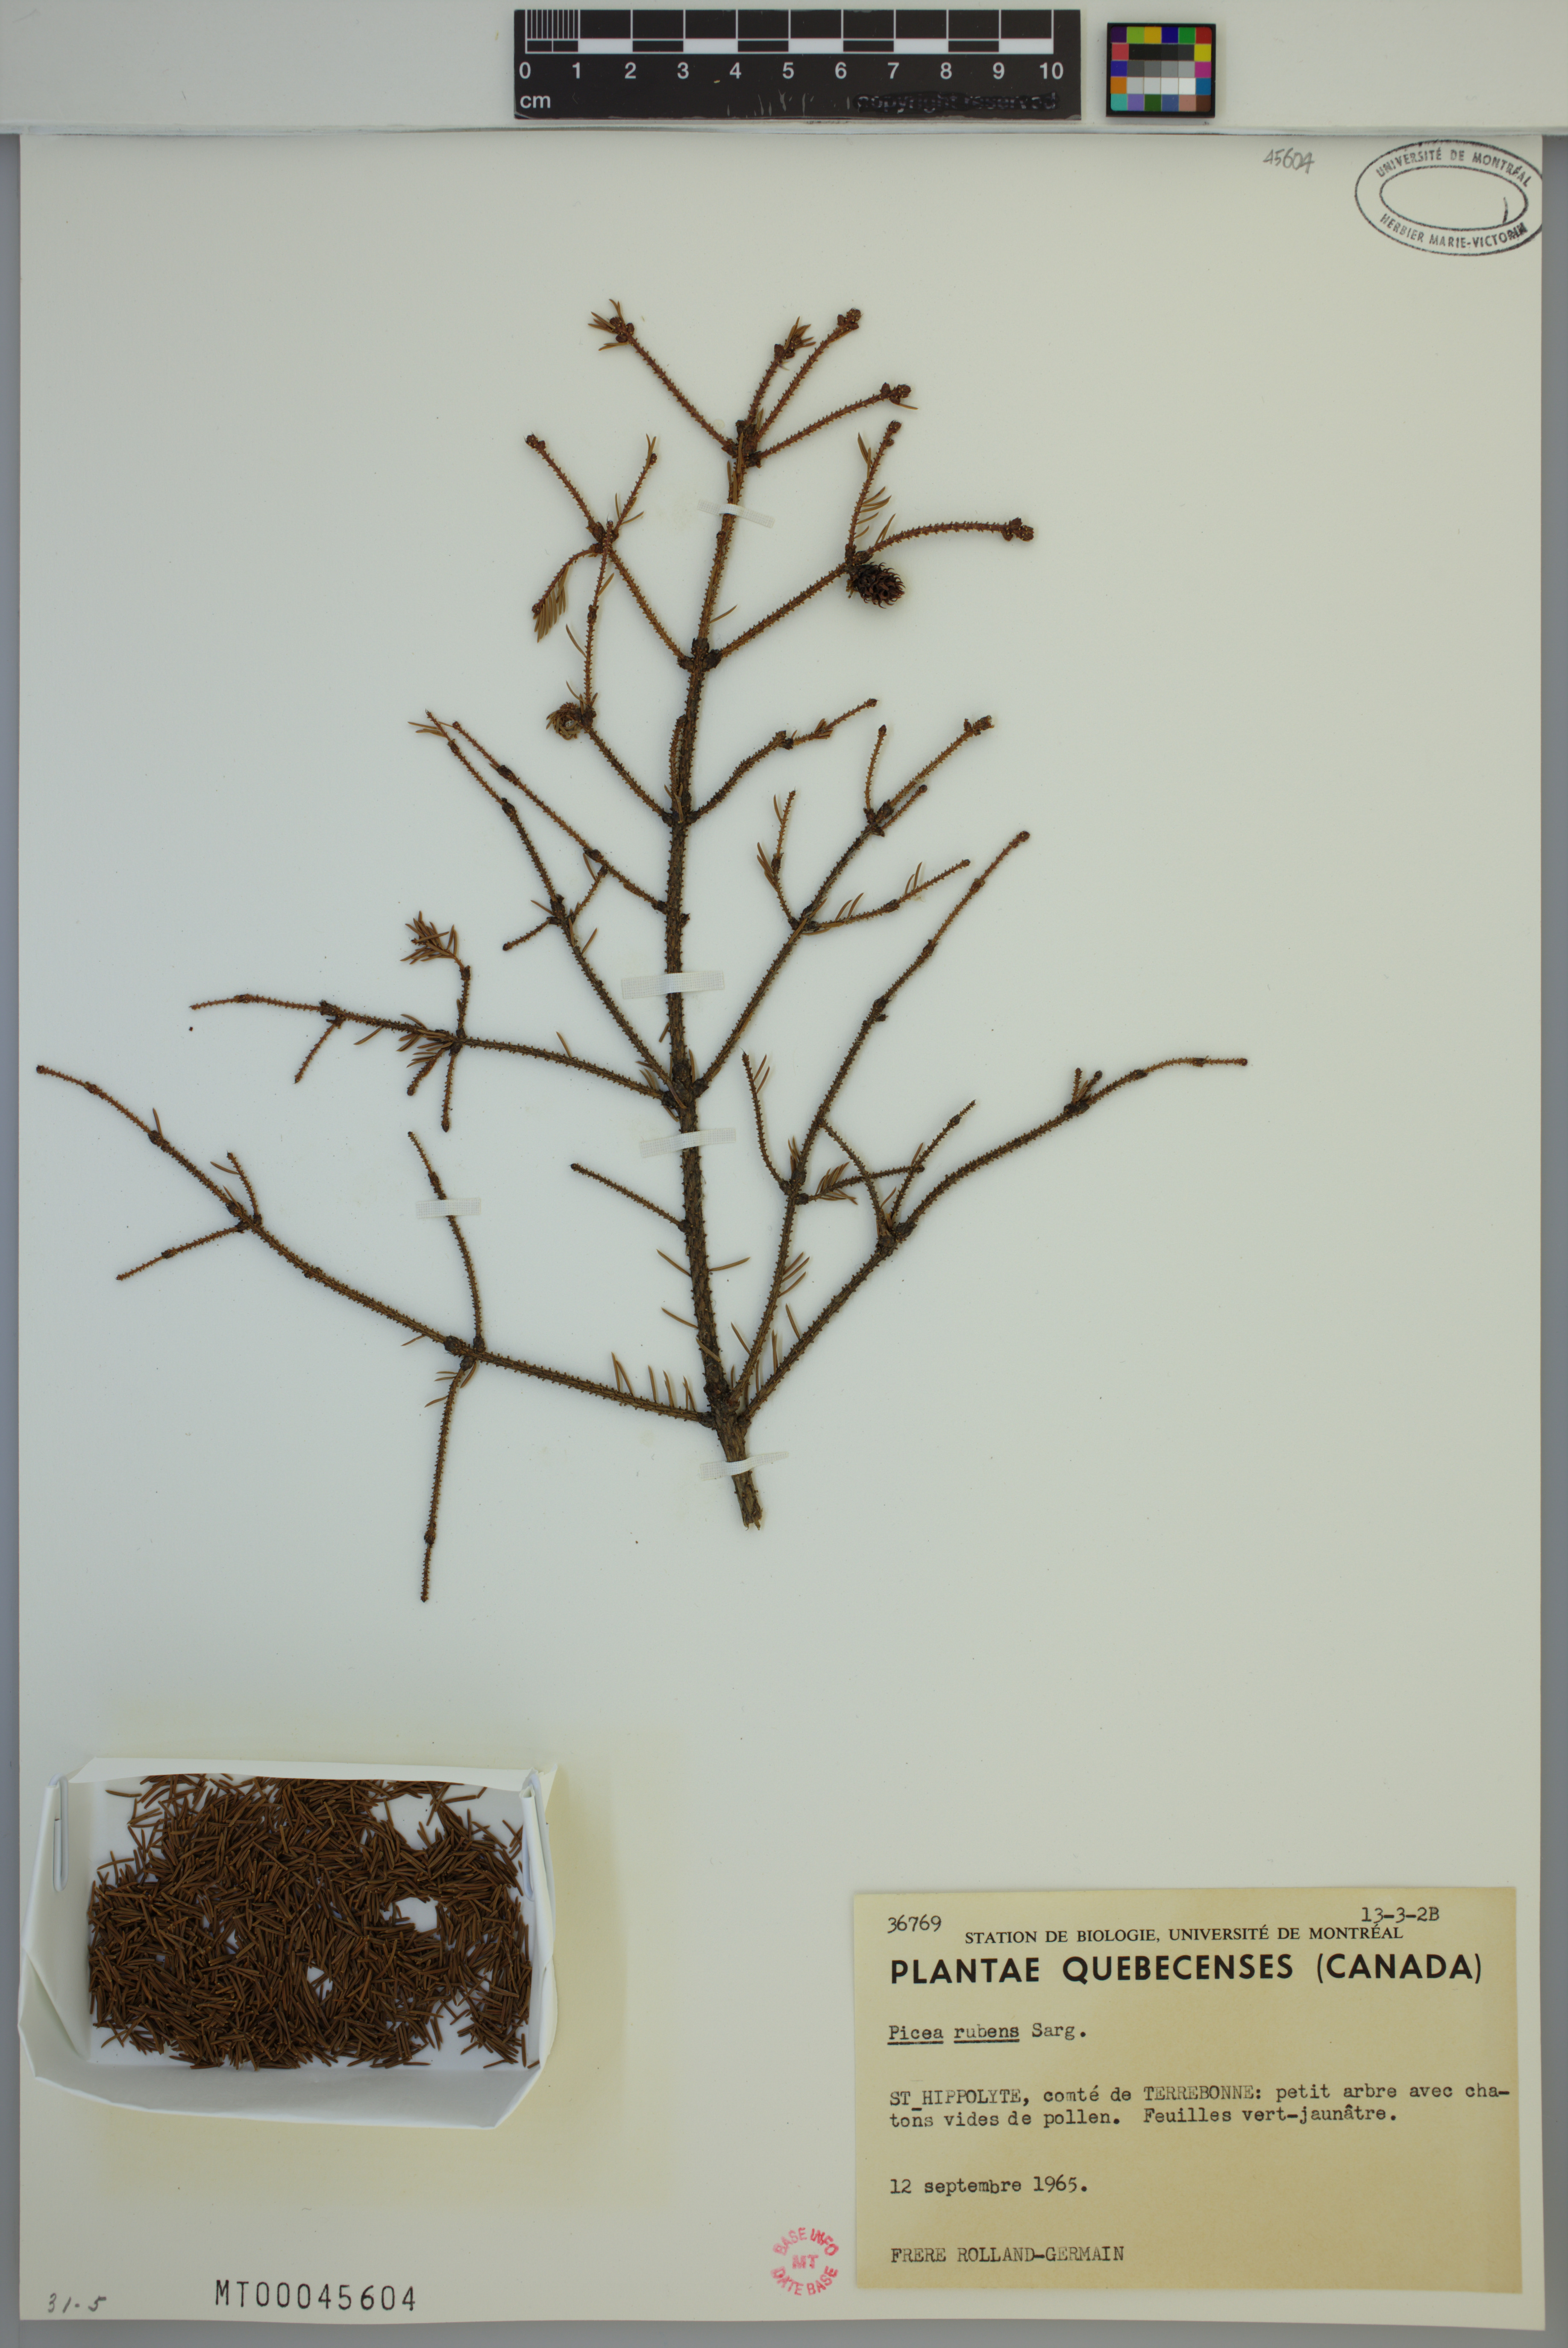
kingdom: Plantae
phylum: Tracheophyta
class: Pinopsida
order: Pinales
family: Pinaceae
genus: Picea
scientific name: Picea rubens
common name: Red spruce
